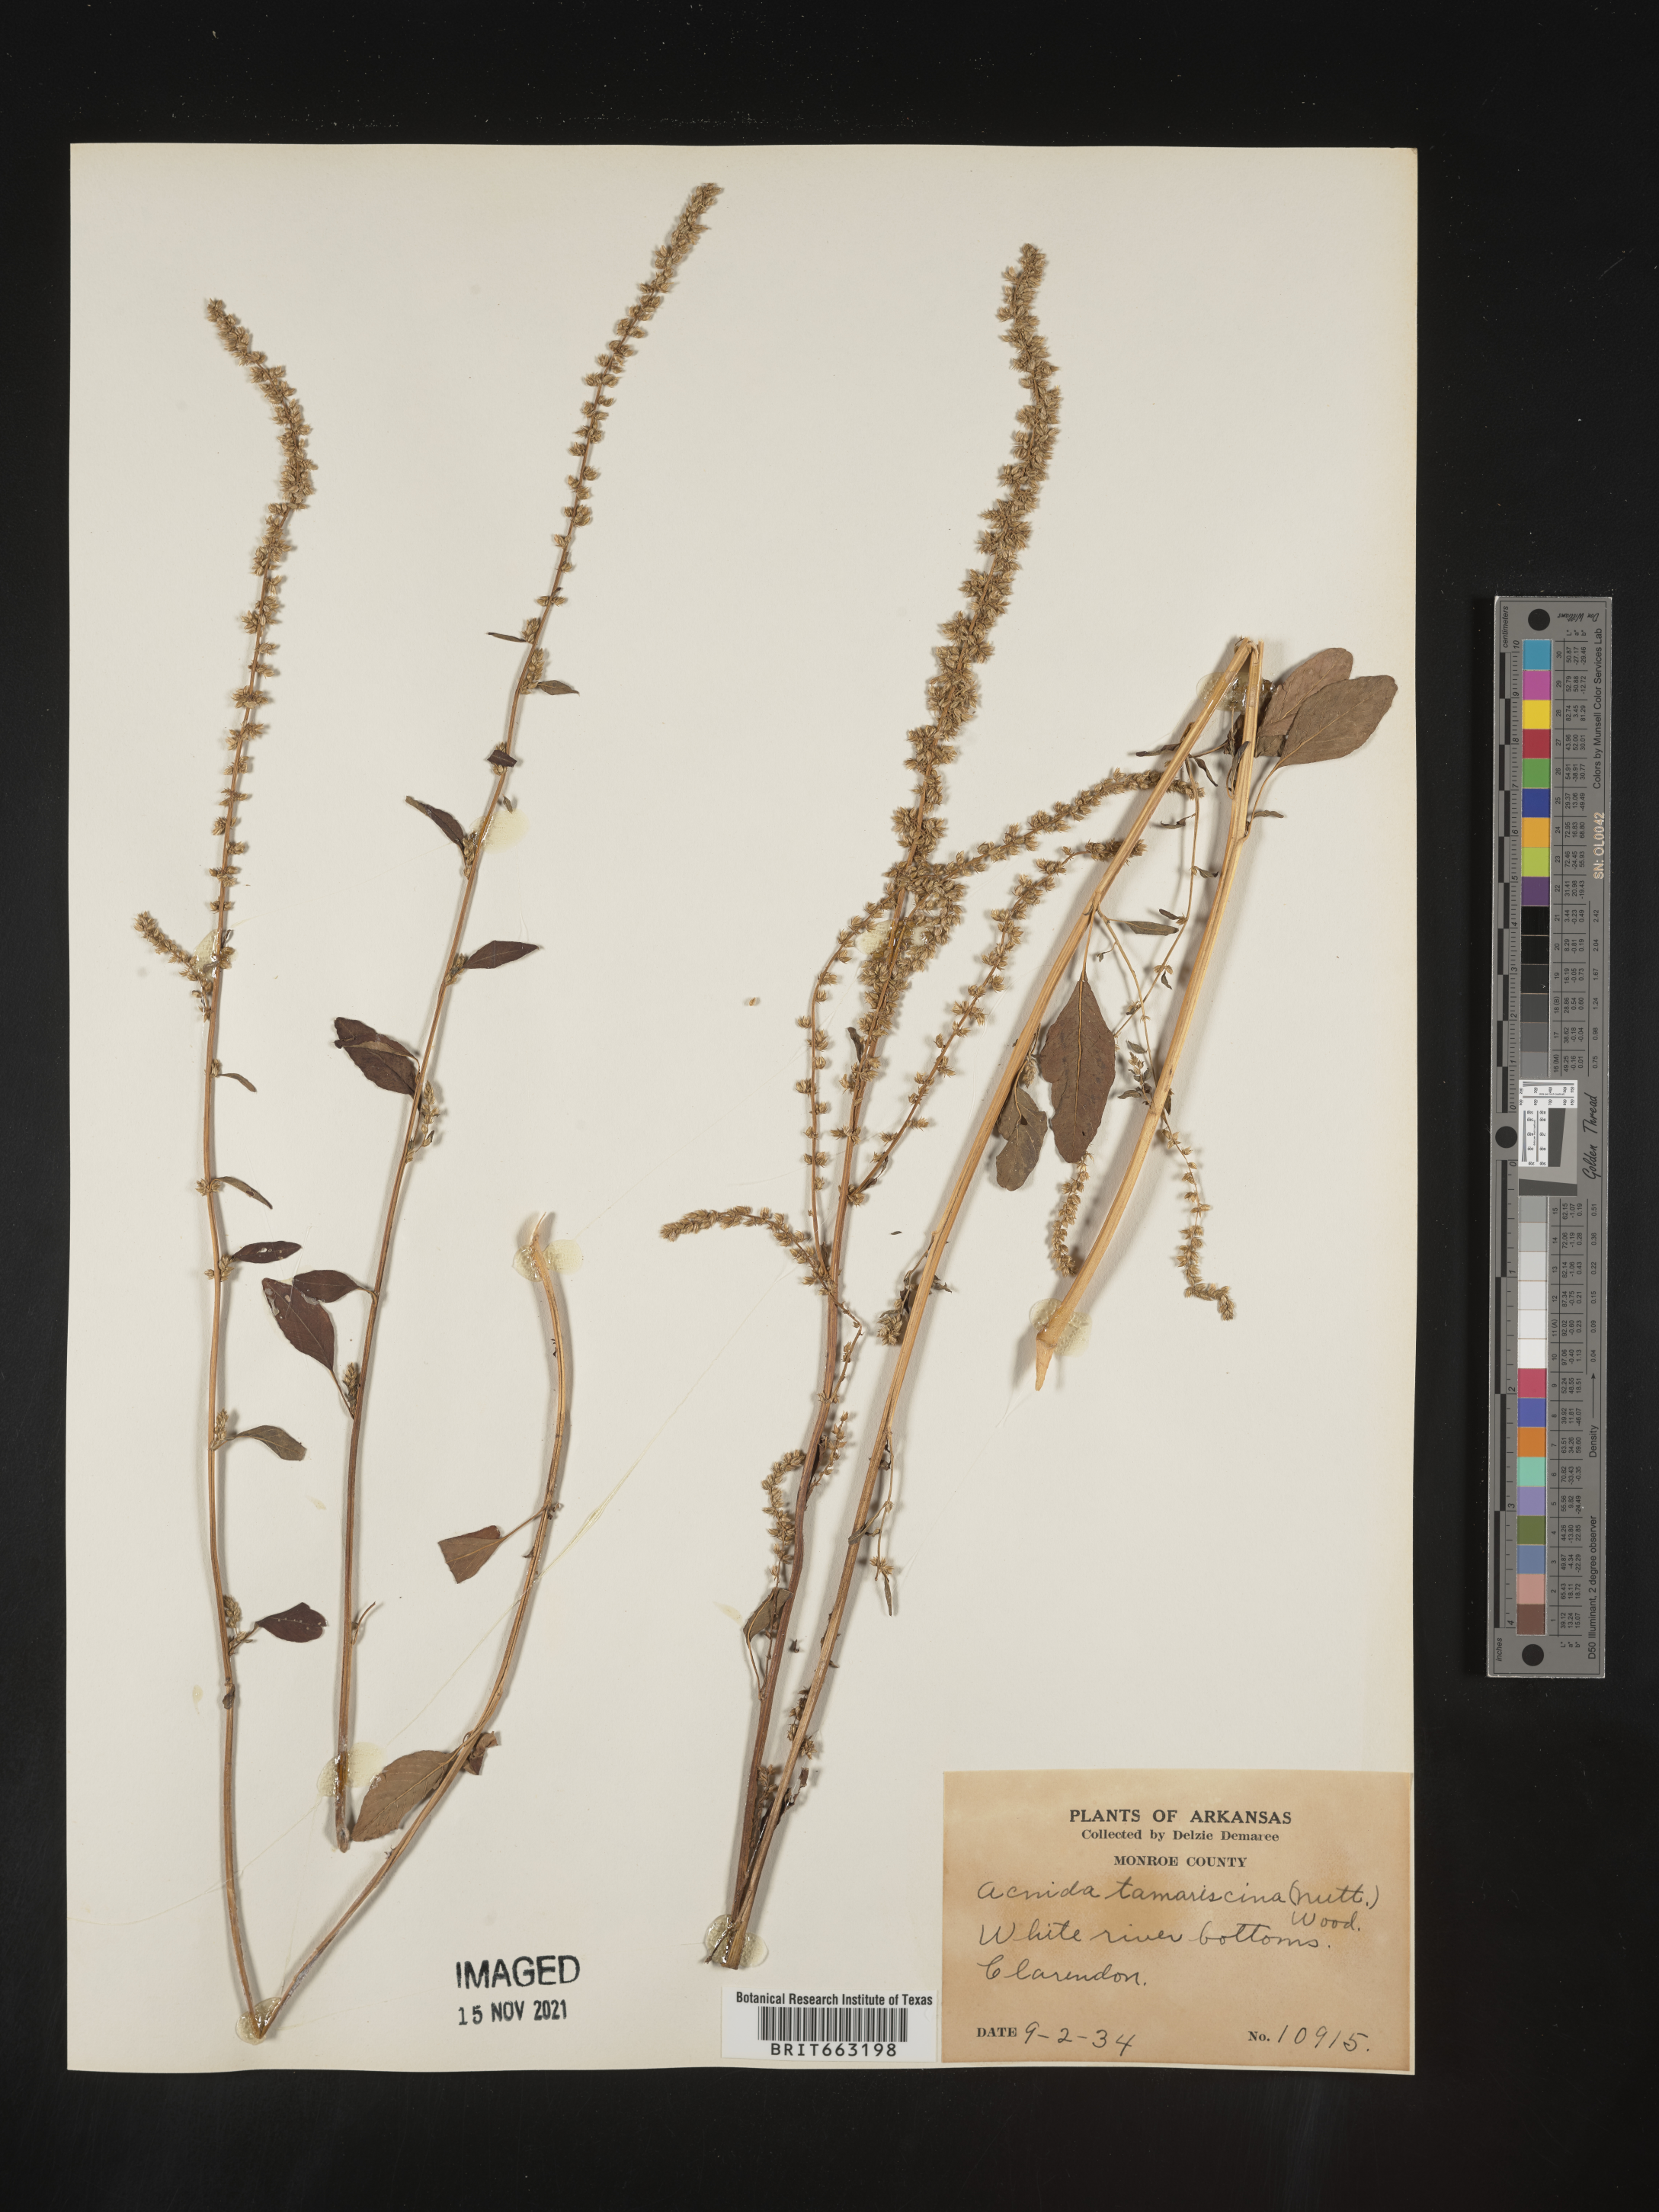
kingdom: Plantae
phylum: Tracheophyta
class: Magnoliopsida
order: Caryophyllales
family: Amaranthaceae
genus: Amaranthus
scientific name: Amaranthus tamariscinus
